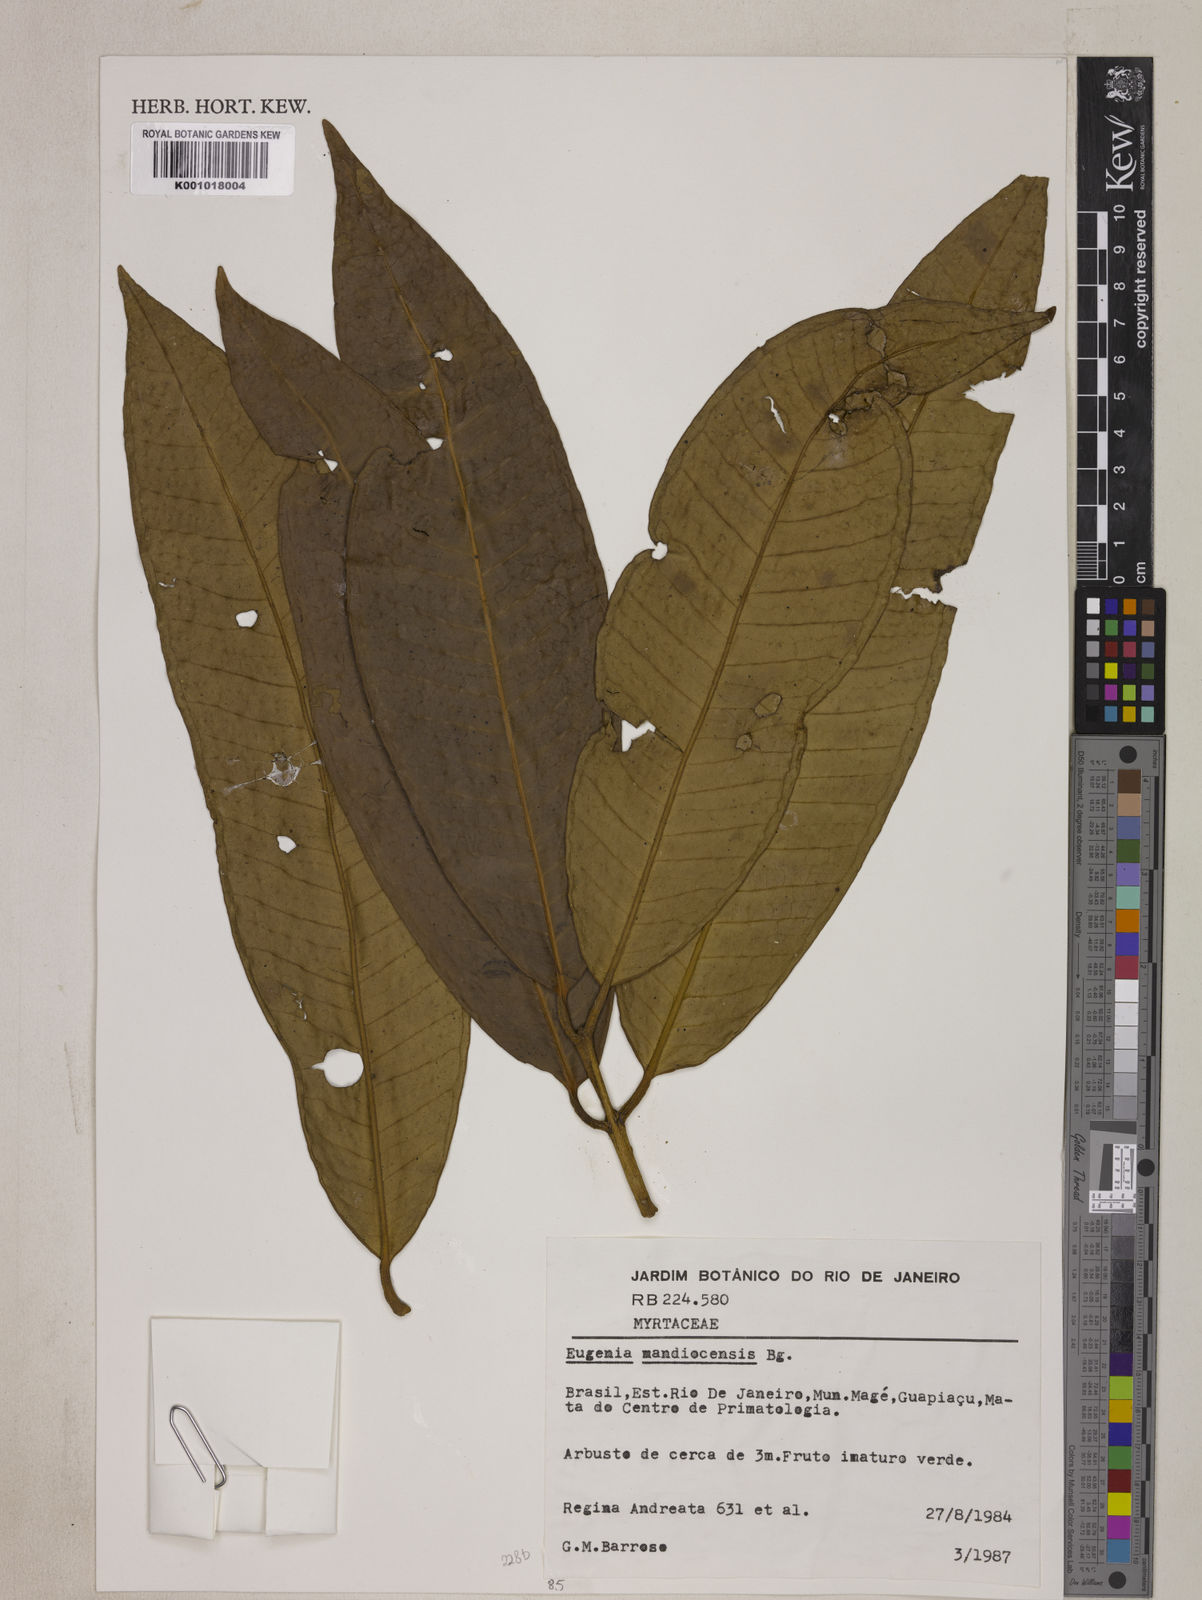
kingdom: Plantae
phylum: Tracheophyta
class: Magnoliopsida
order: Myrtales
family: Myrtaceae
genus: Eugenia
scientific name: Eugenia mandioccensis
